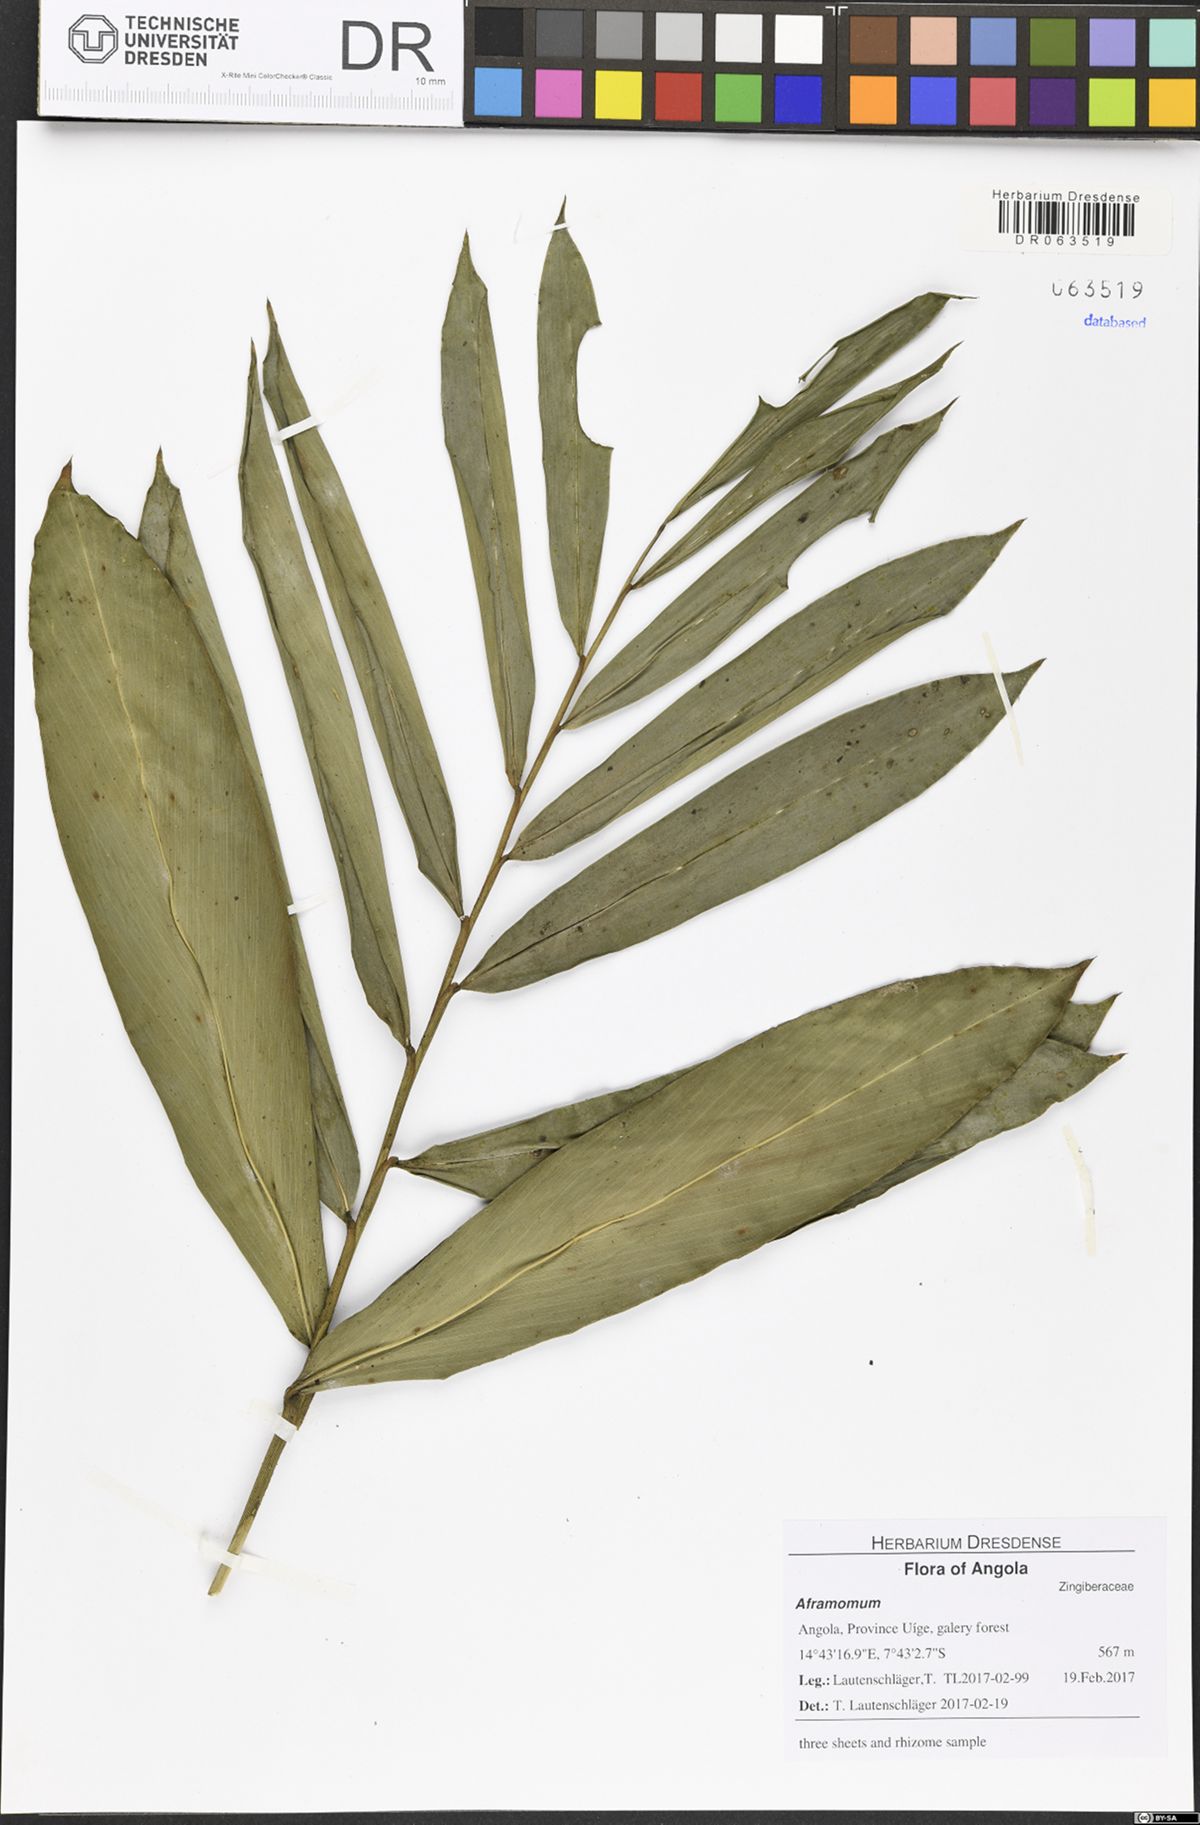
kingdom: Plantae
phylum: Tracheophyta
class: Liliopsida
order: Zingiberales
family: Zingiberaceae
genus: Aframomum
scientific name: Aframomum parvulum
